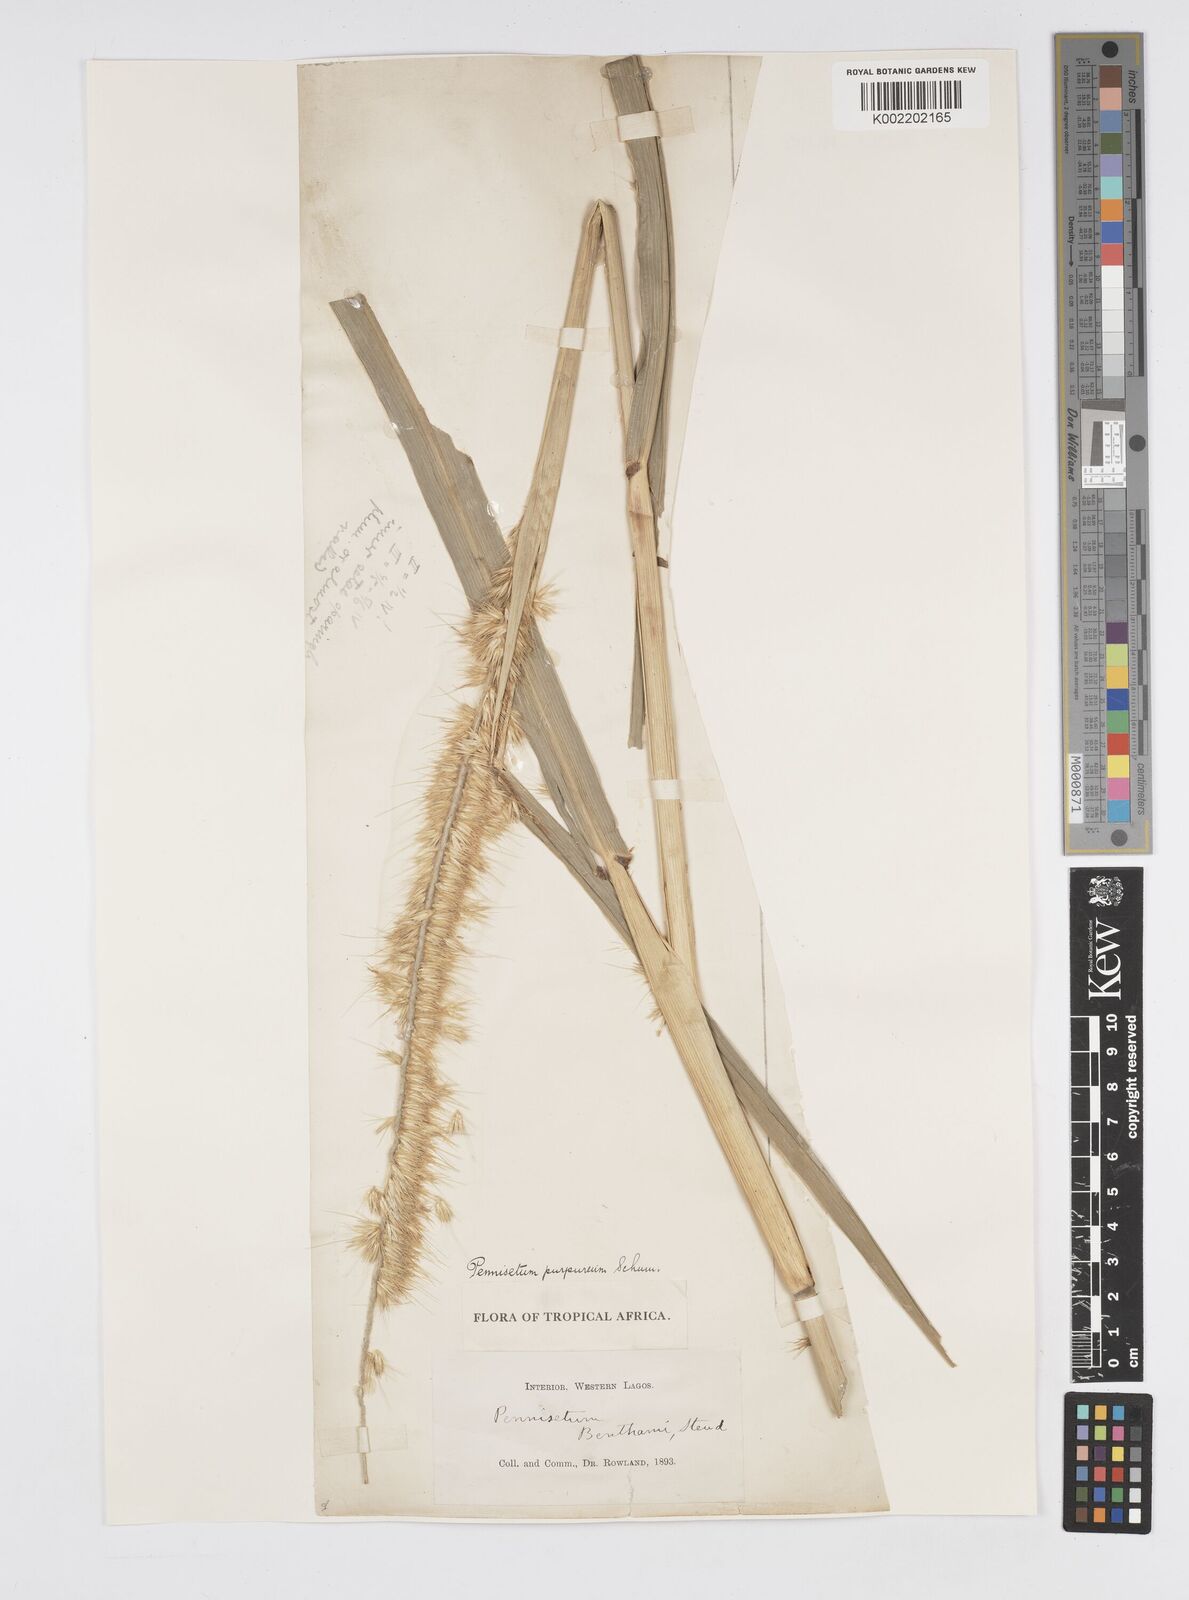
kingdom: Plantae
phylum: Tracheophyta
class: Liliopsida
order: Poales
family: Poaceae
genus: Cenchrus
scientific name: Cenchrus purpureus
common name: Elephant grass
